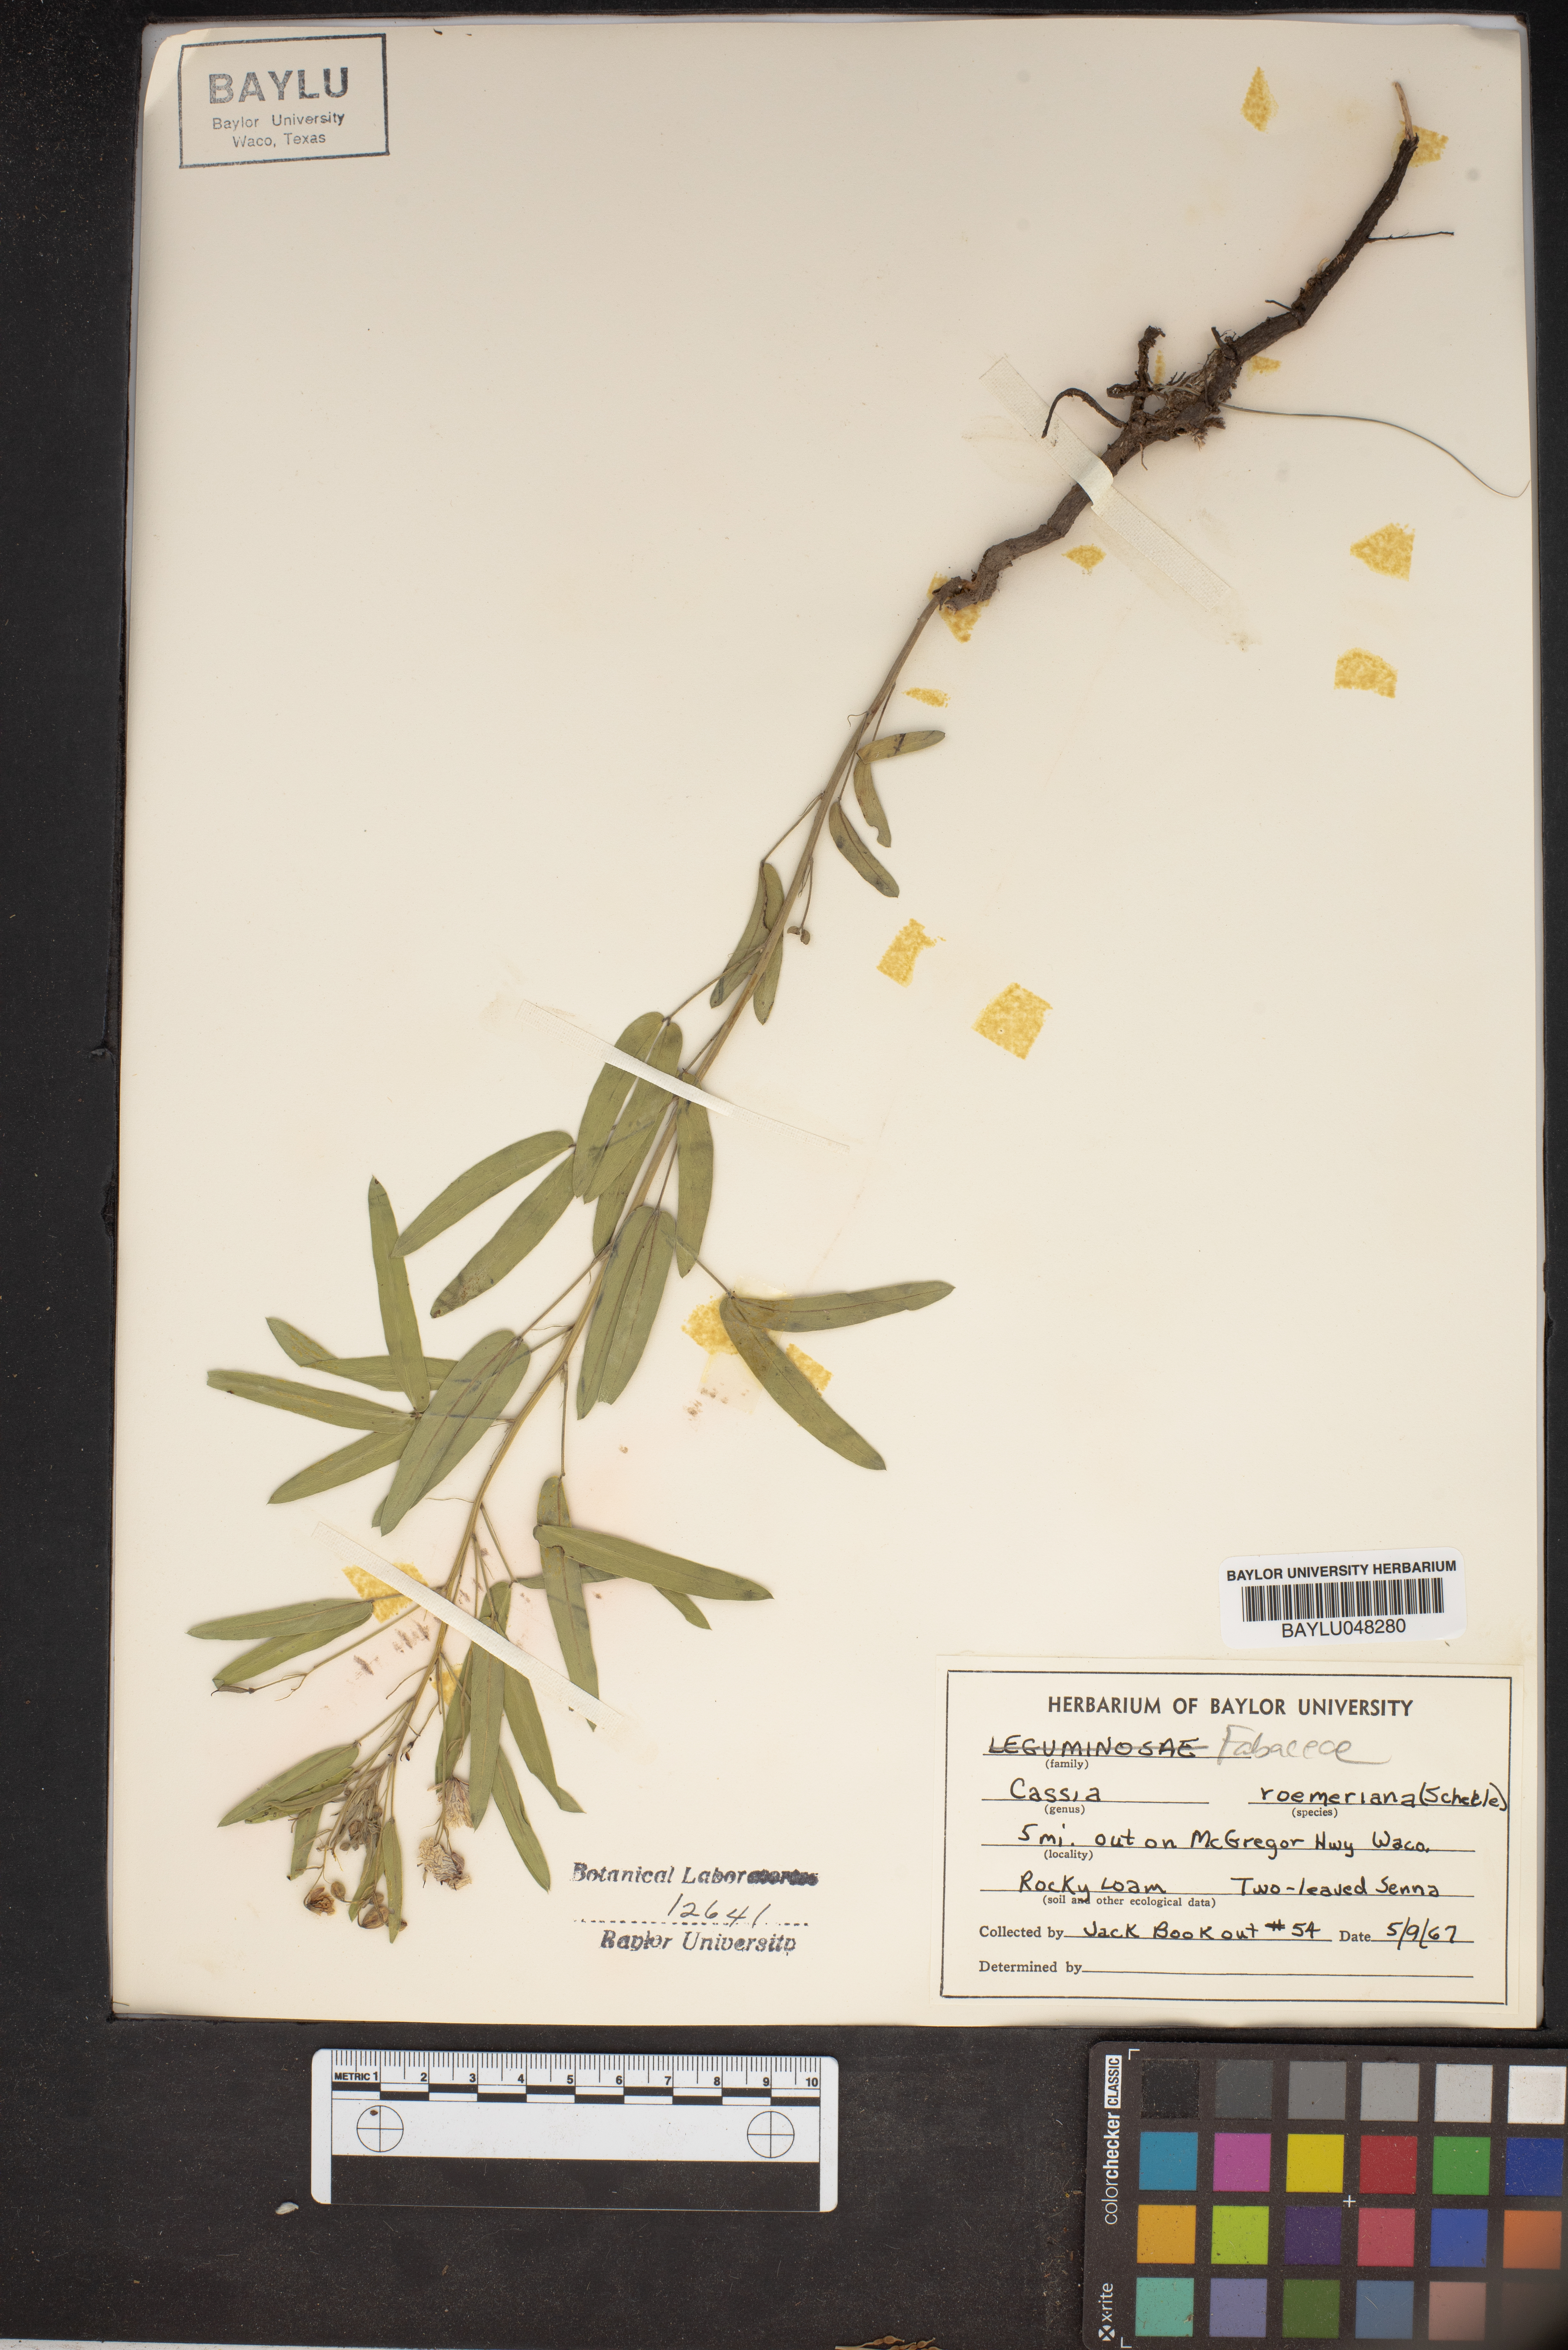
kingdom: Plantae
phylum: Tracheophyta
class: Magnoliopsida
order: Fabales
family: Fabaceae
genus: Senna
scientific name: Senna roemeriana
